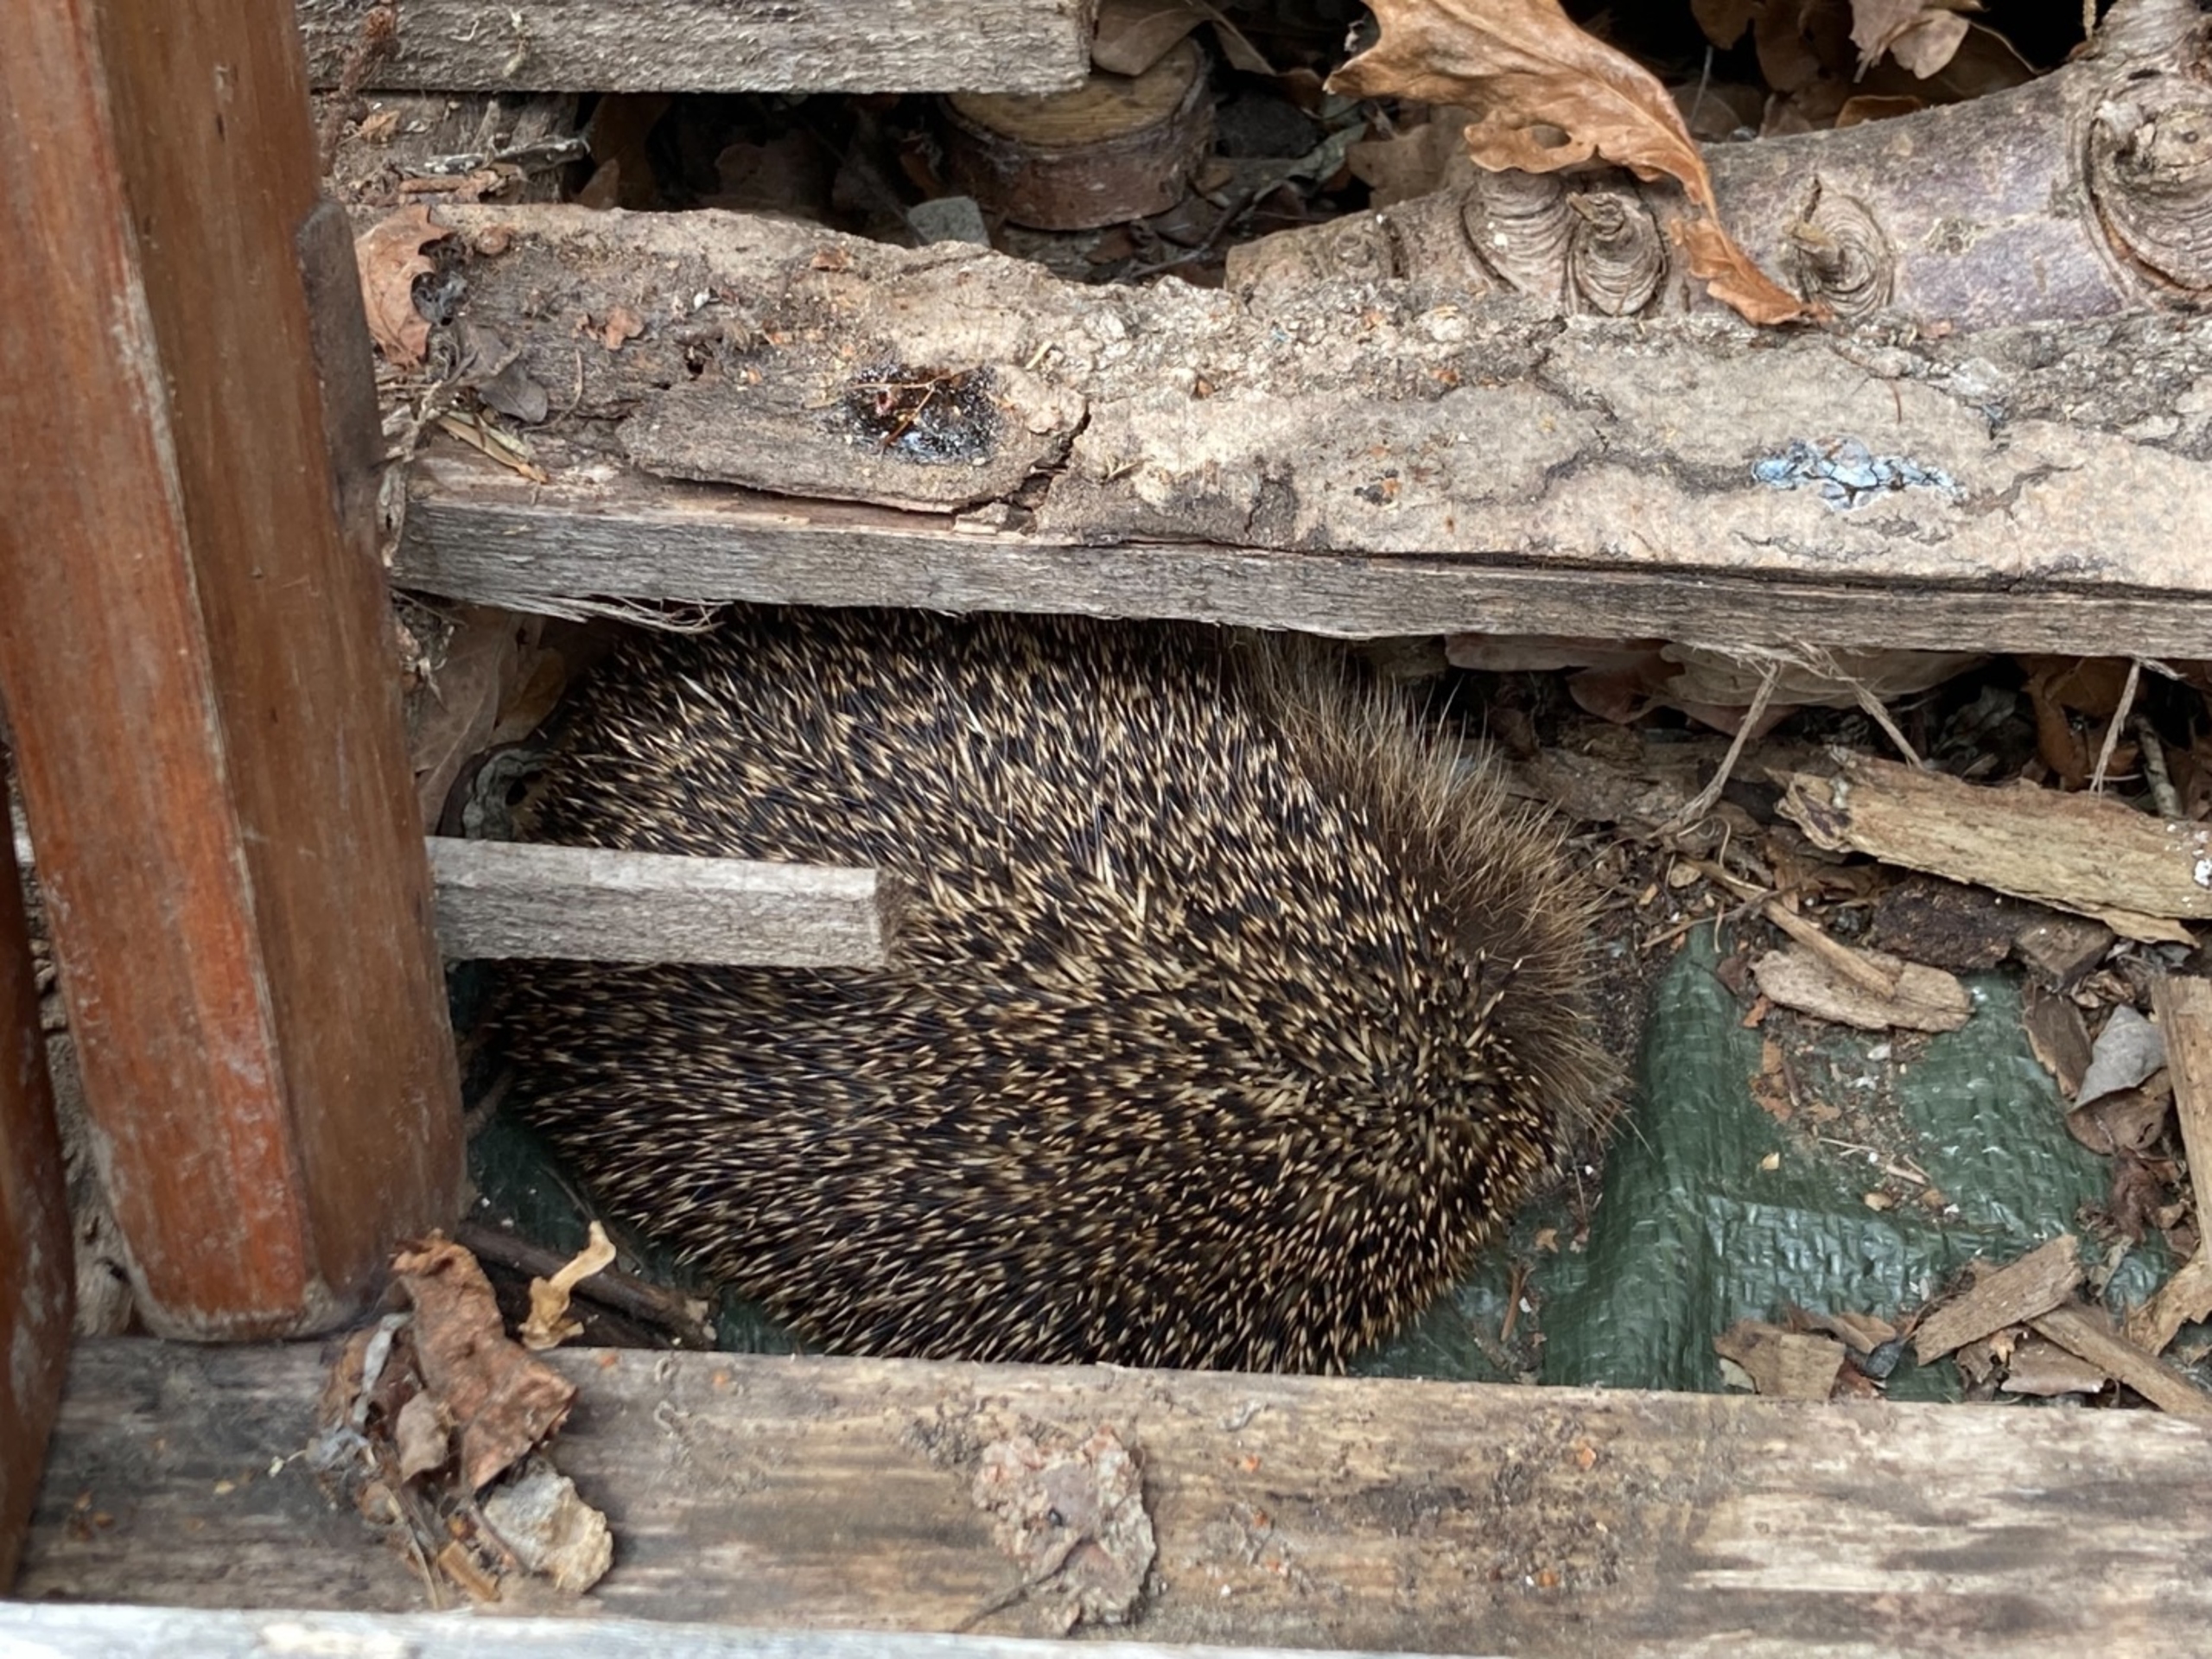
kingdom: Animalia
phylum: Chordata
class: Mammalia
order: Erinaceomorpha
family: Erinaceidae
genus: Erinaceus
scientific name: Erinaceus europaeus
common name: Pindsvin
